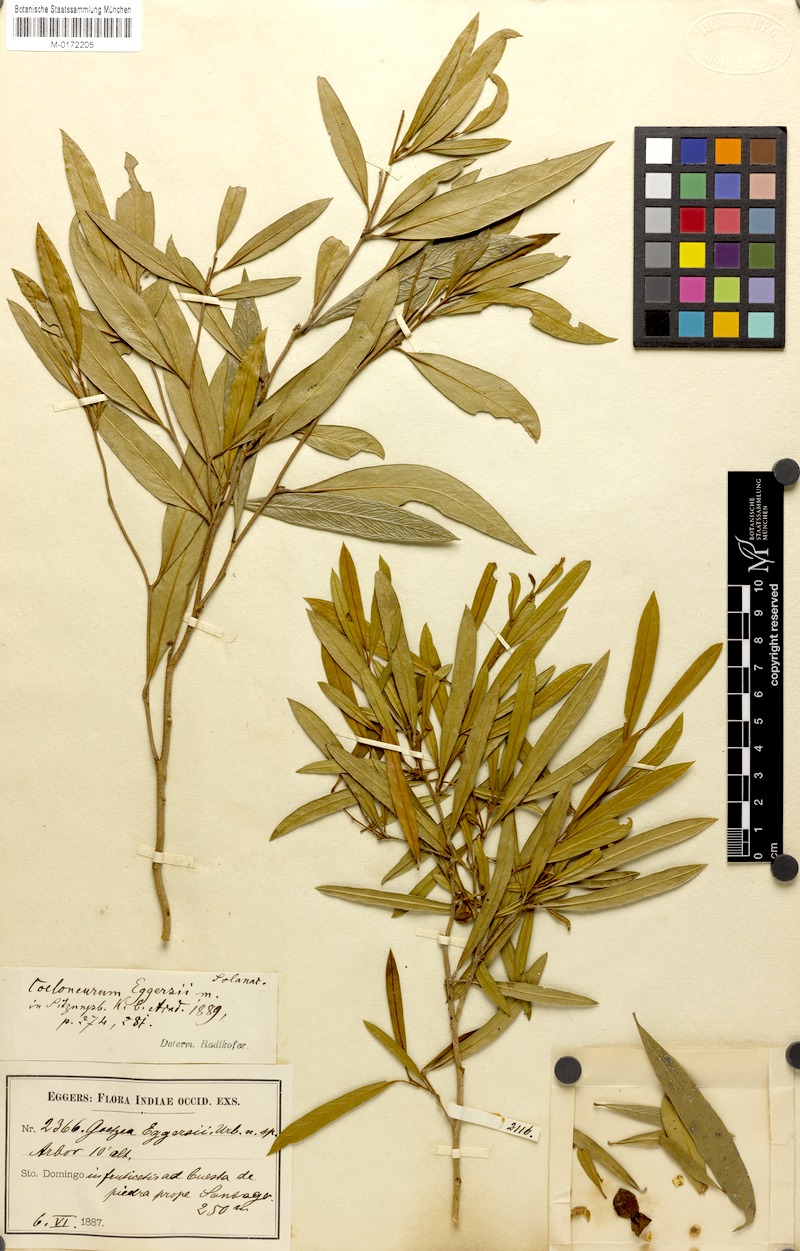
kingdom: Plantae
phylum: Tracheophyta
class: Magnoliopsida
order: Solanales
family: Solanaceae
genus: Coeloneurum
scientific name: Coeloneurum ferrugineum
